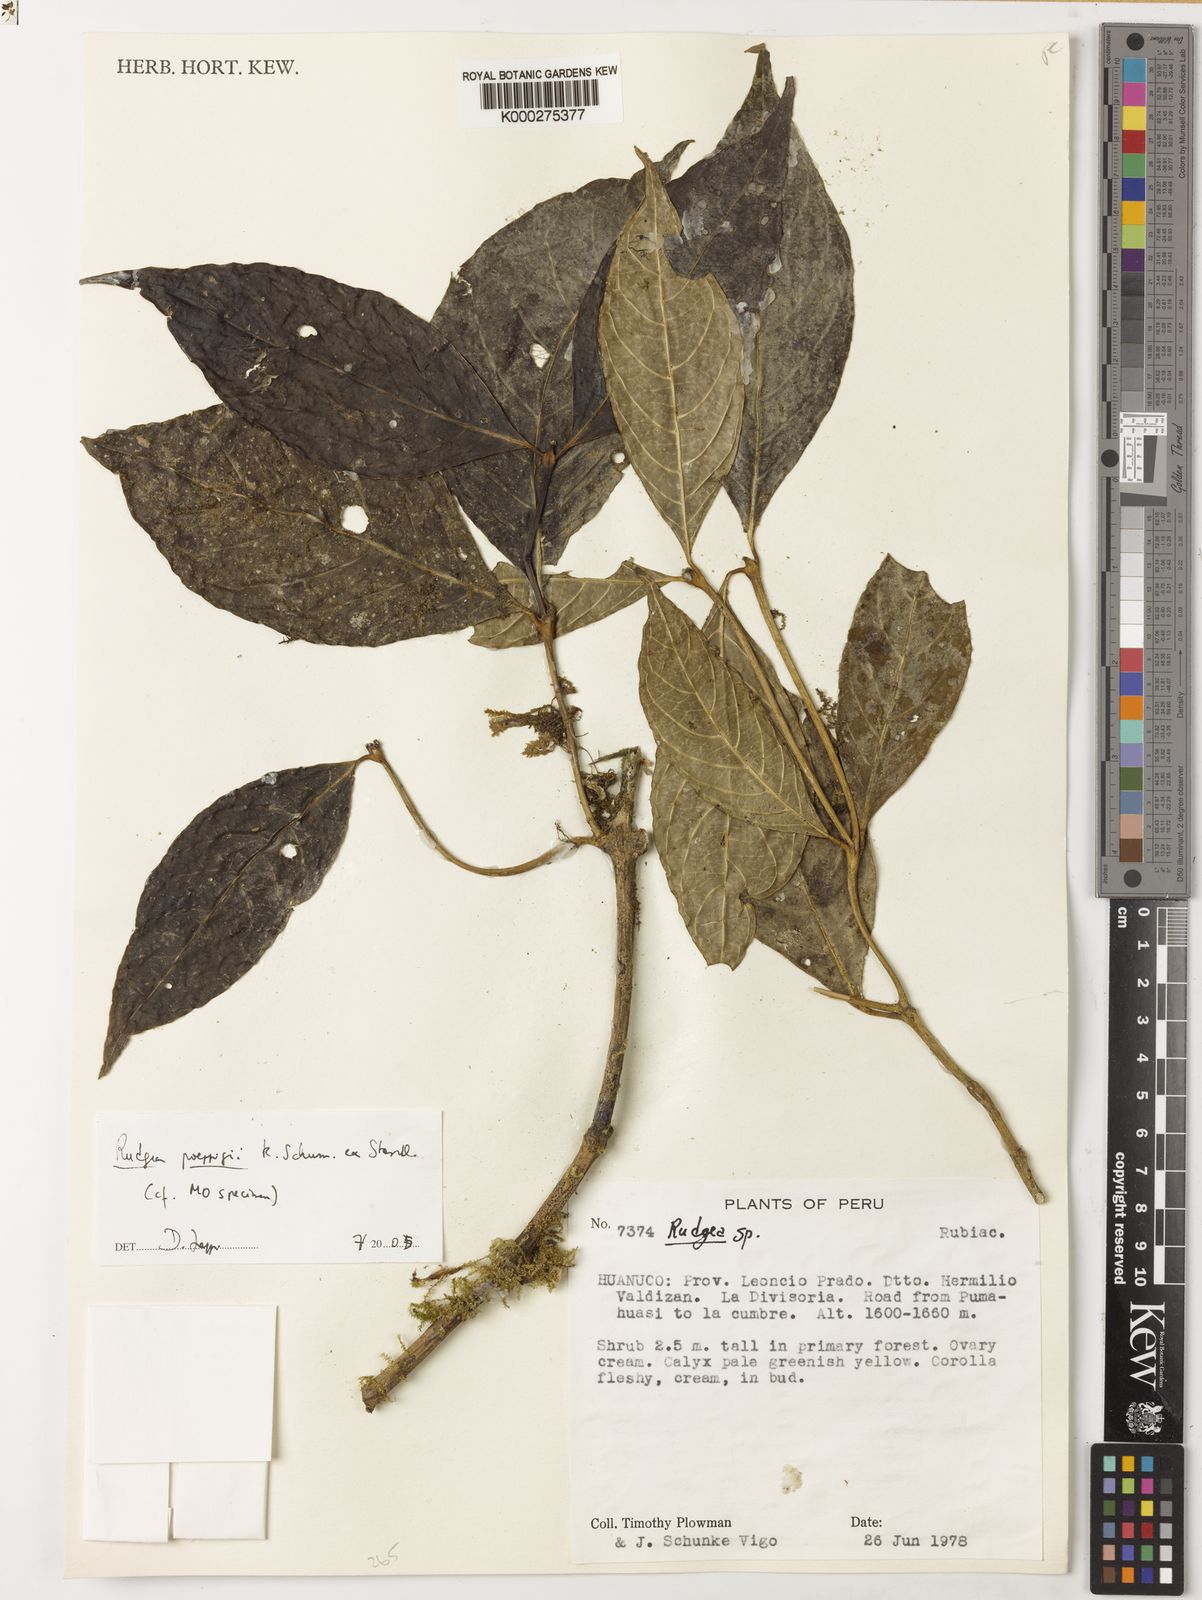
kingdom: Plantae
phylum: Tracheophyta
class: Magnoliopsida
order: Gentianales
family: Rubiaceae
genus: Rudgea
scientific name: Rudgea skutchii
